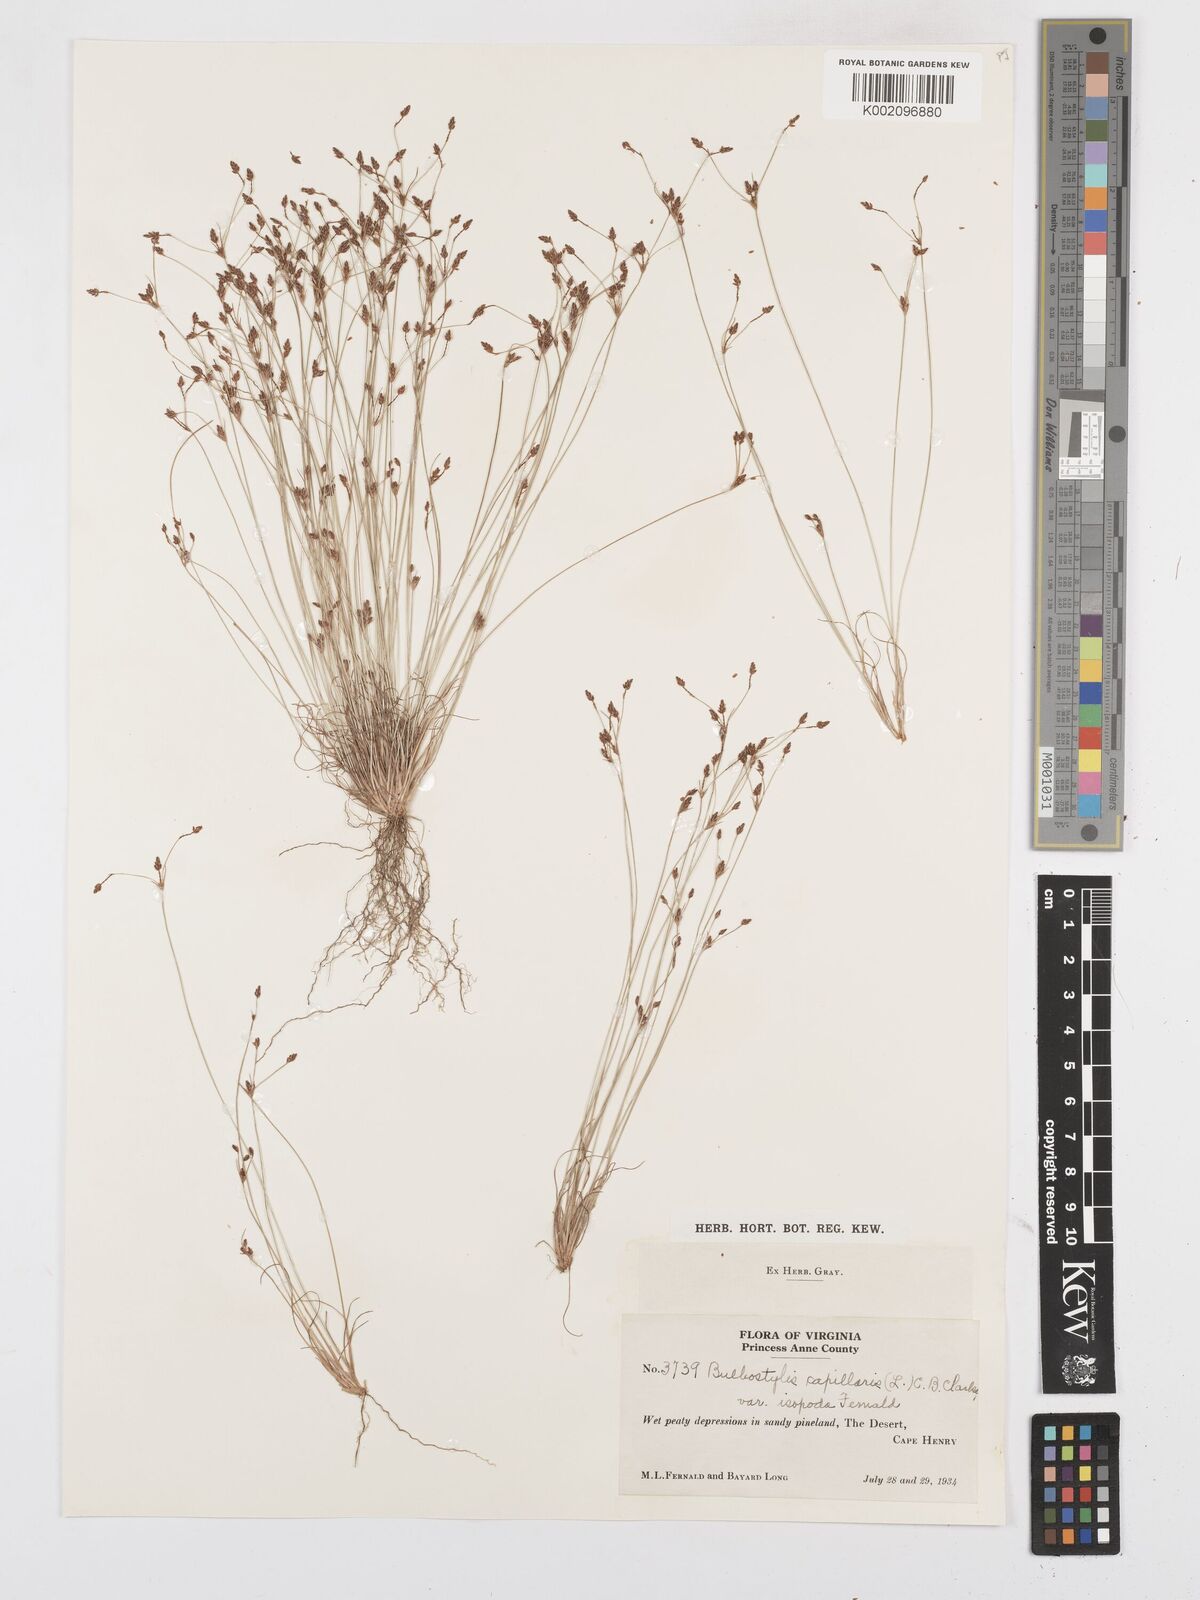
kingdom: Plantae
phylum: Tracheophyta
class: Liliopsida
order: Poales
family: Cyperaceae
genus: Bulbostylis
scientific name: Bulbostylis capillaris
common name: Densetuft hairsedge
